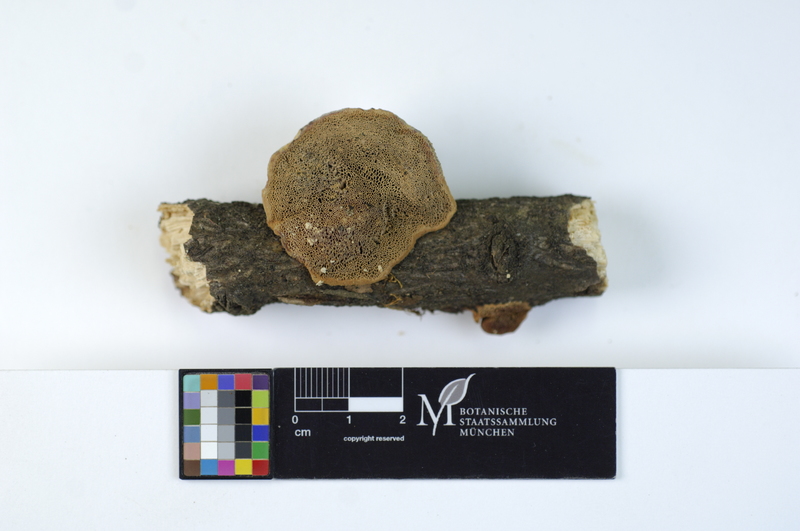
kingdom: Fungi
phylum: Basidiomycota
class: Agaricomycetes
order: Polyporales
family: Phanerochaetaceae
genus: Hapalopilus
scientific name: Hapalopilus rutilans
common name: Tender nesting polypore
